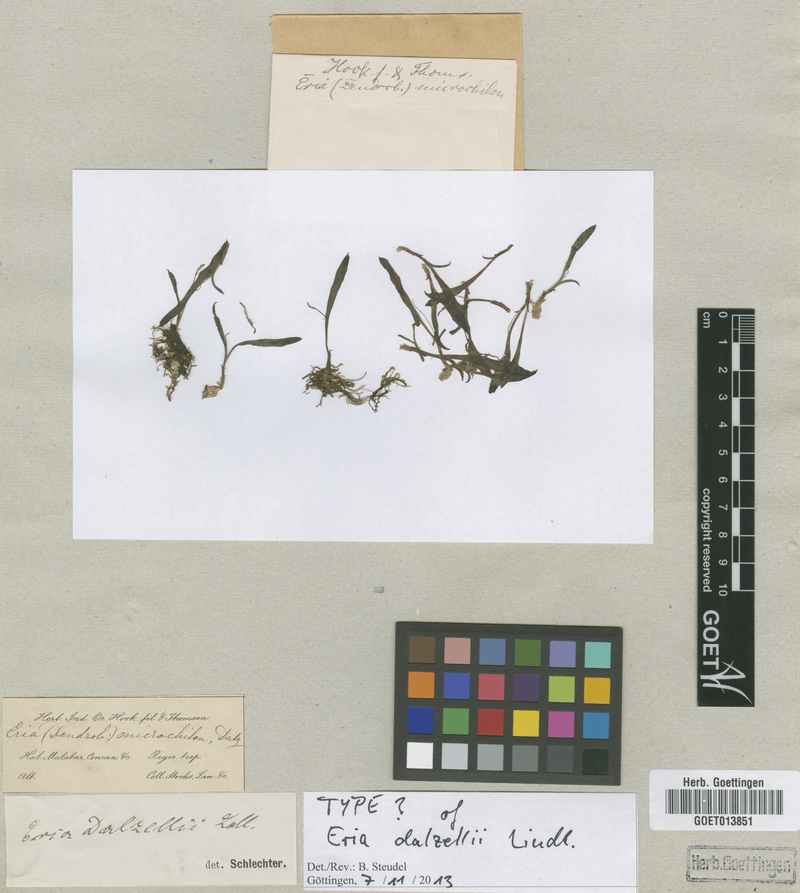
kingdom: Plantae
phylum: Tracheophyta
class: Liliopsida
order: Asparagales
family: Orchidaceae
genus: Porpax
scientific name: Porpax filiformis
